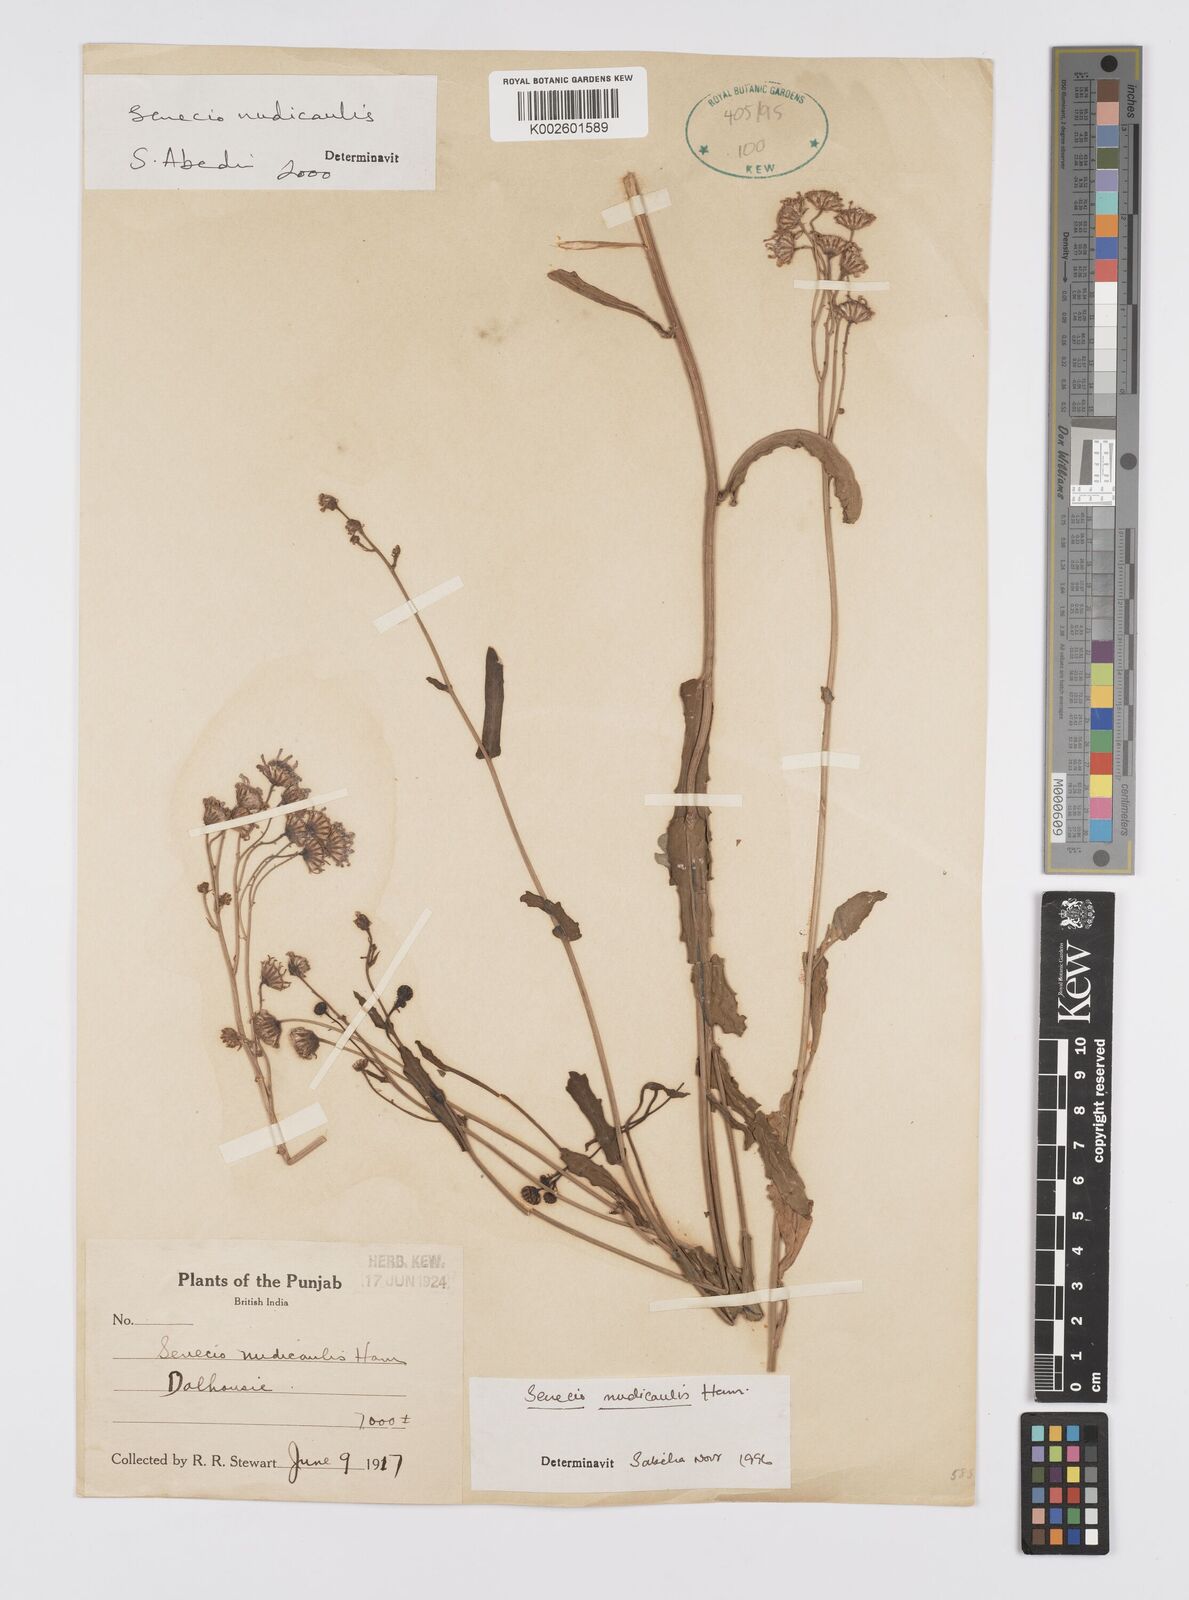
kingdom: Plantae
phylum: Tracheophyta
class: Magnoliopsida
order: Asterales
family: Asteraceae
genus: Jacobaea
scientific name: Jacobaea nudicaulis
